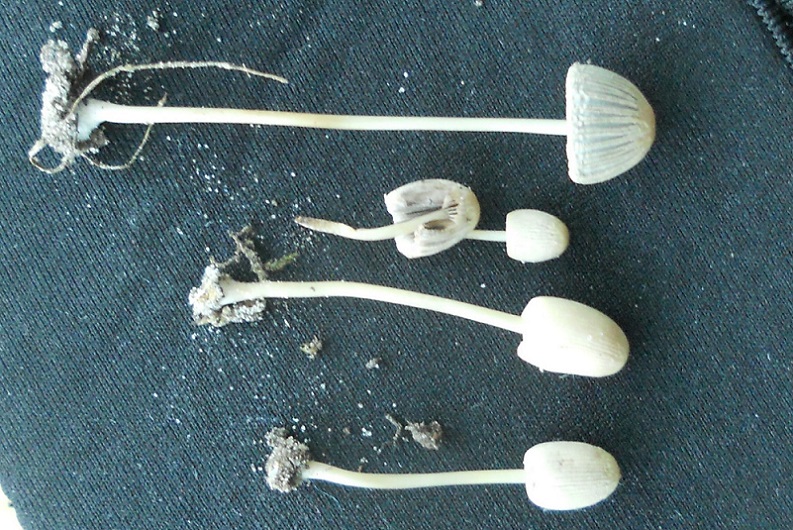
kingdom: Fungi
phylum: Basidiomycota
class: Agaricomycetes
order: Agaricales
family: Psathyrellaceae
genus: Parasola
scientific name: Parasola lactea
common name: glat hjulhat
